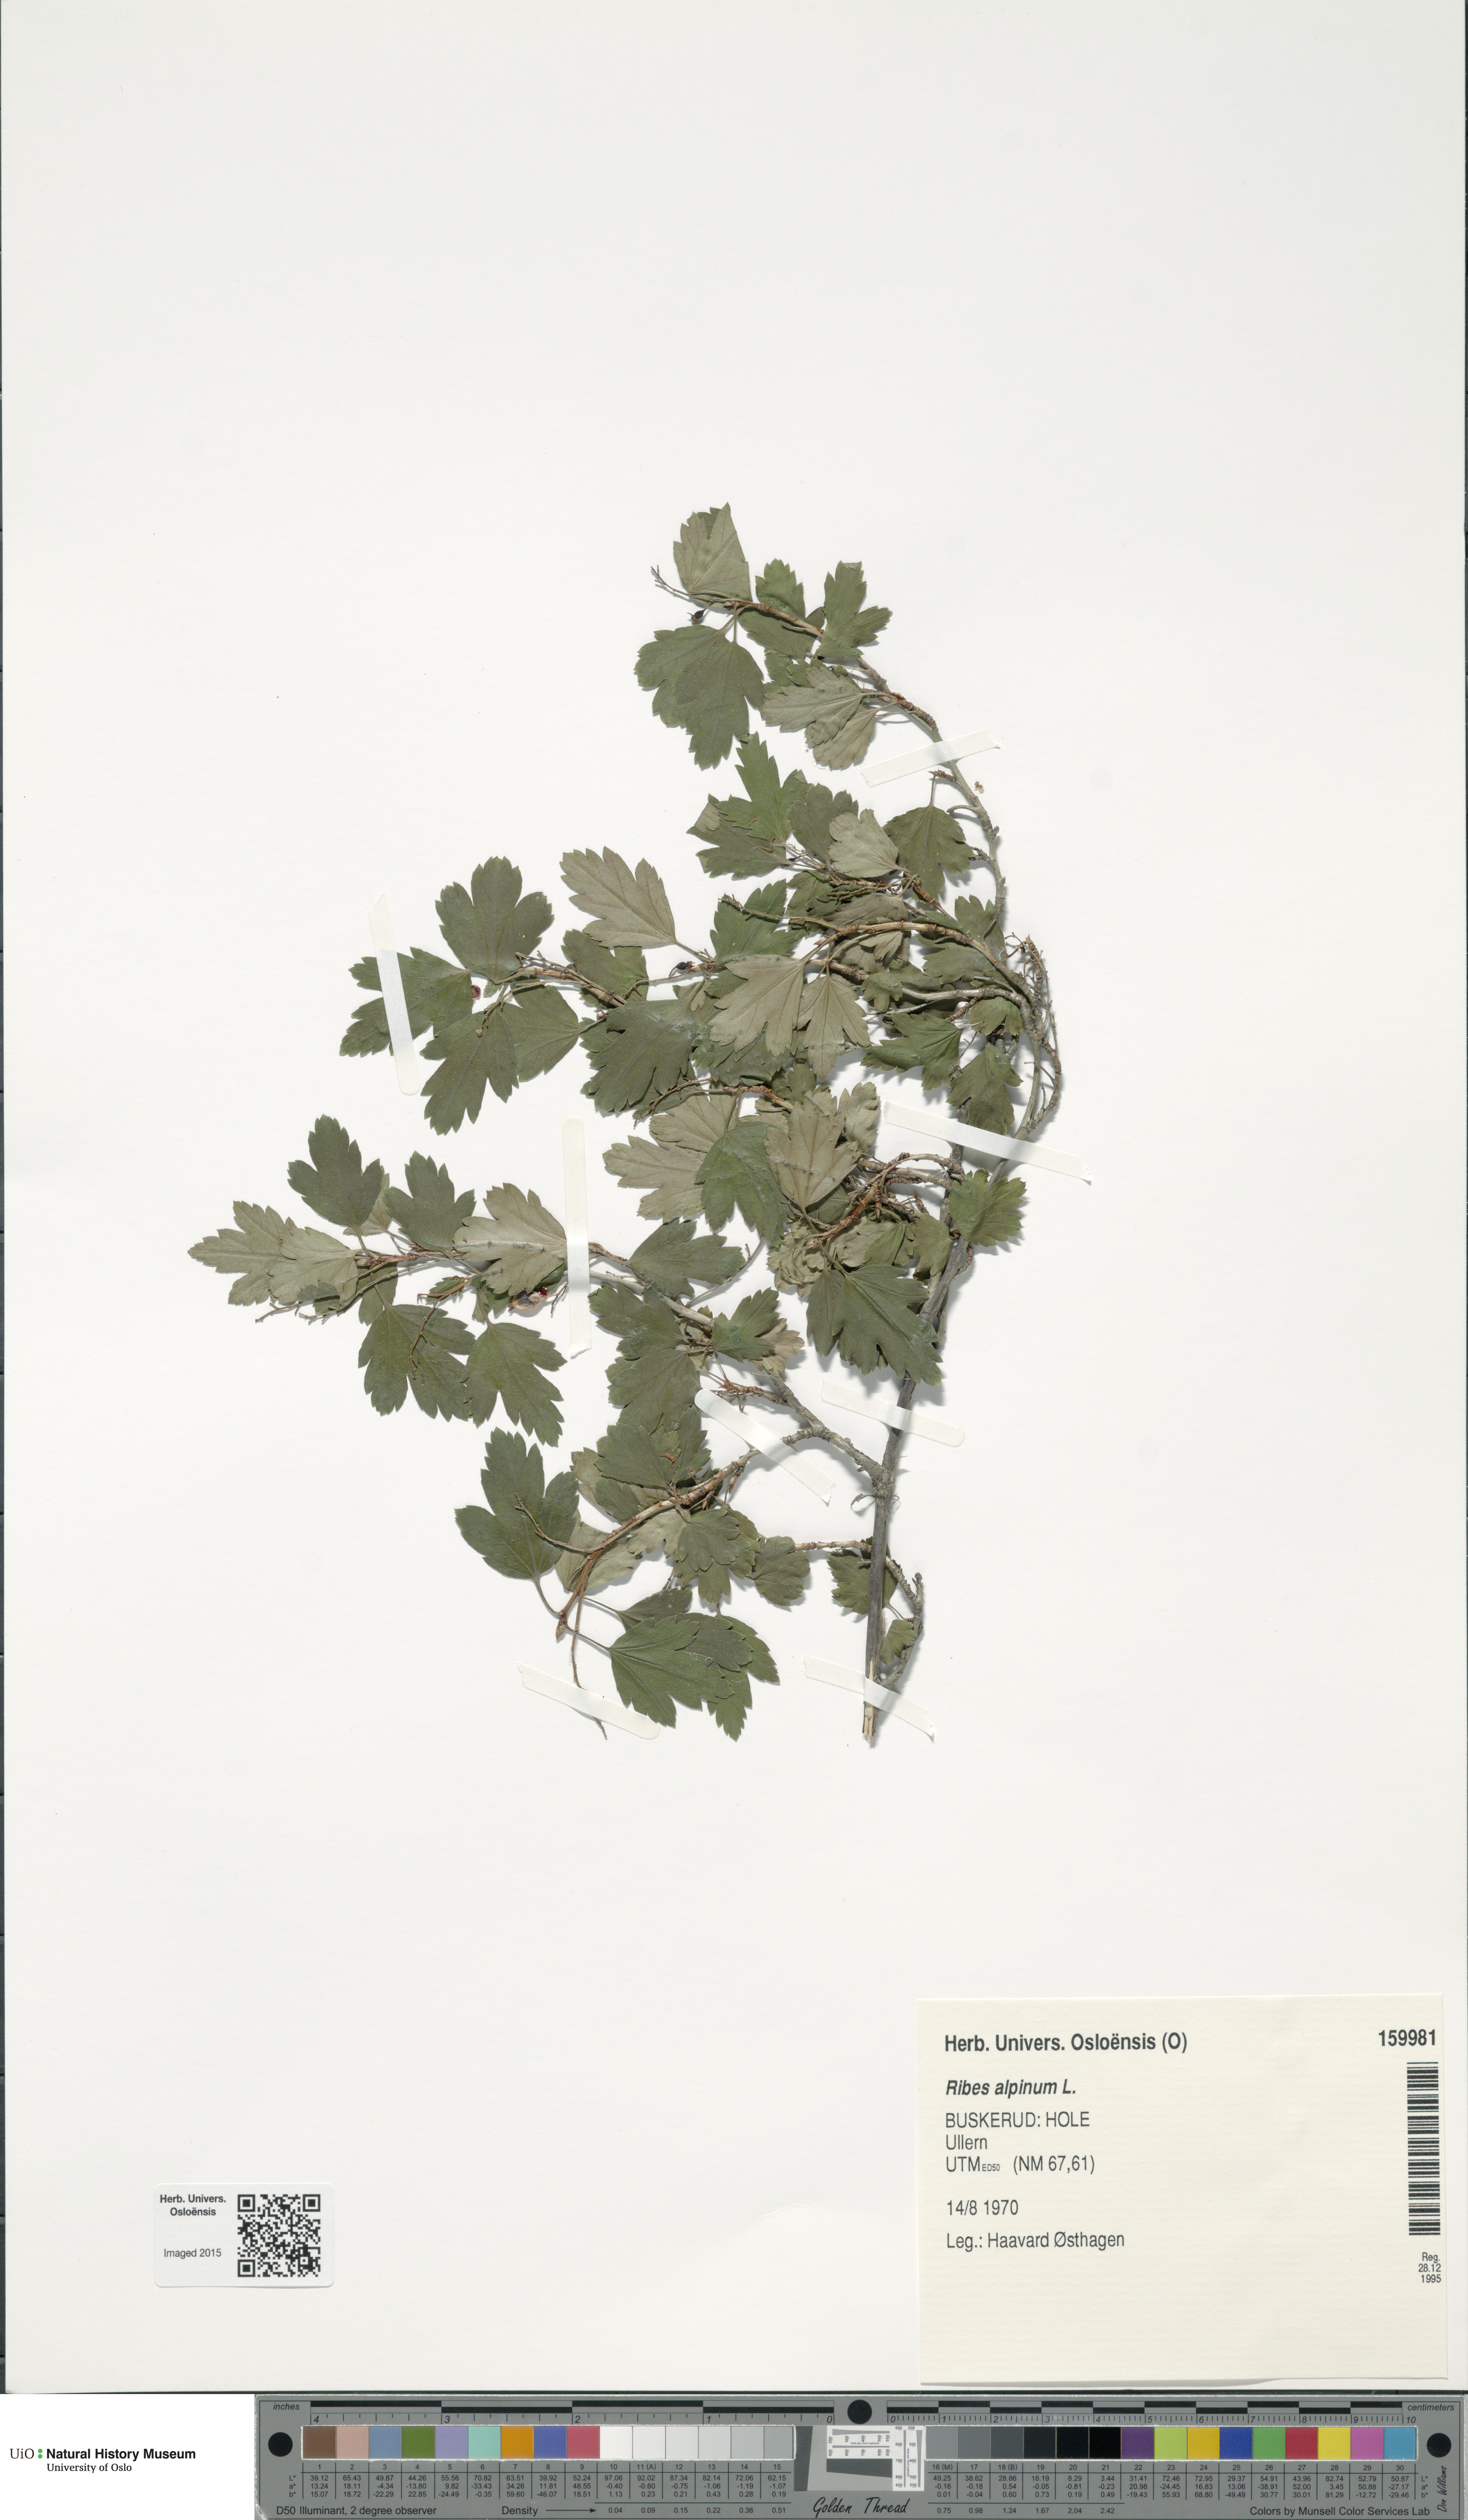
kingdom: Plantae
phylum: Tracheophyta
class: Magnoliopsida
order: Saxifragales
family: Grossulariaceae
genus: Ribes
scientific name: Ribes alpinum
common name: Alpine currant
